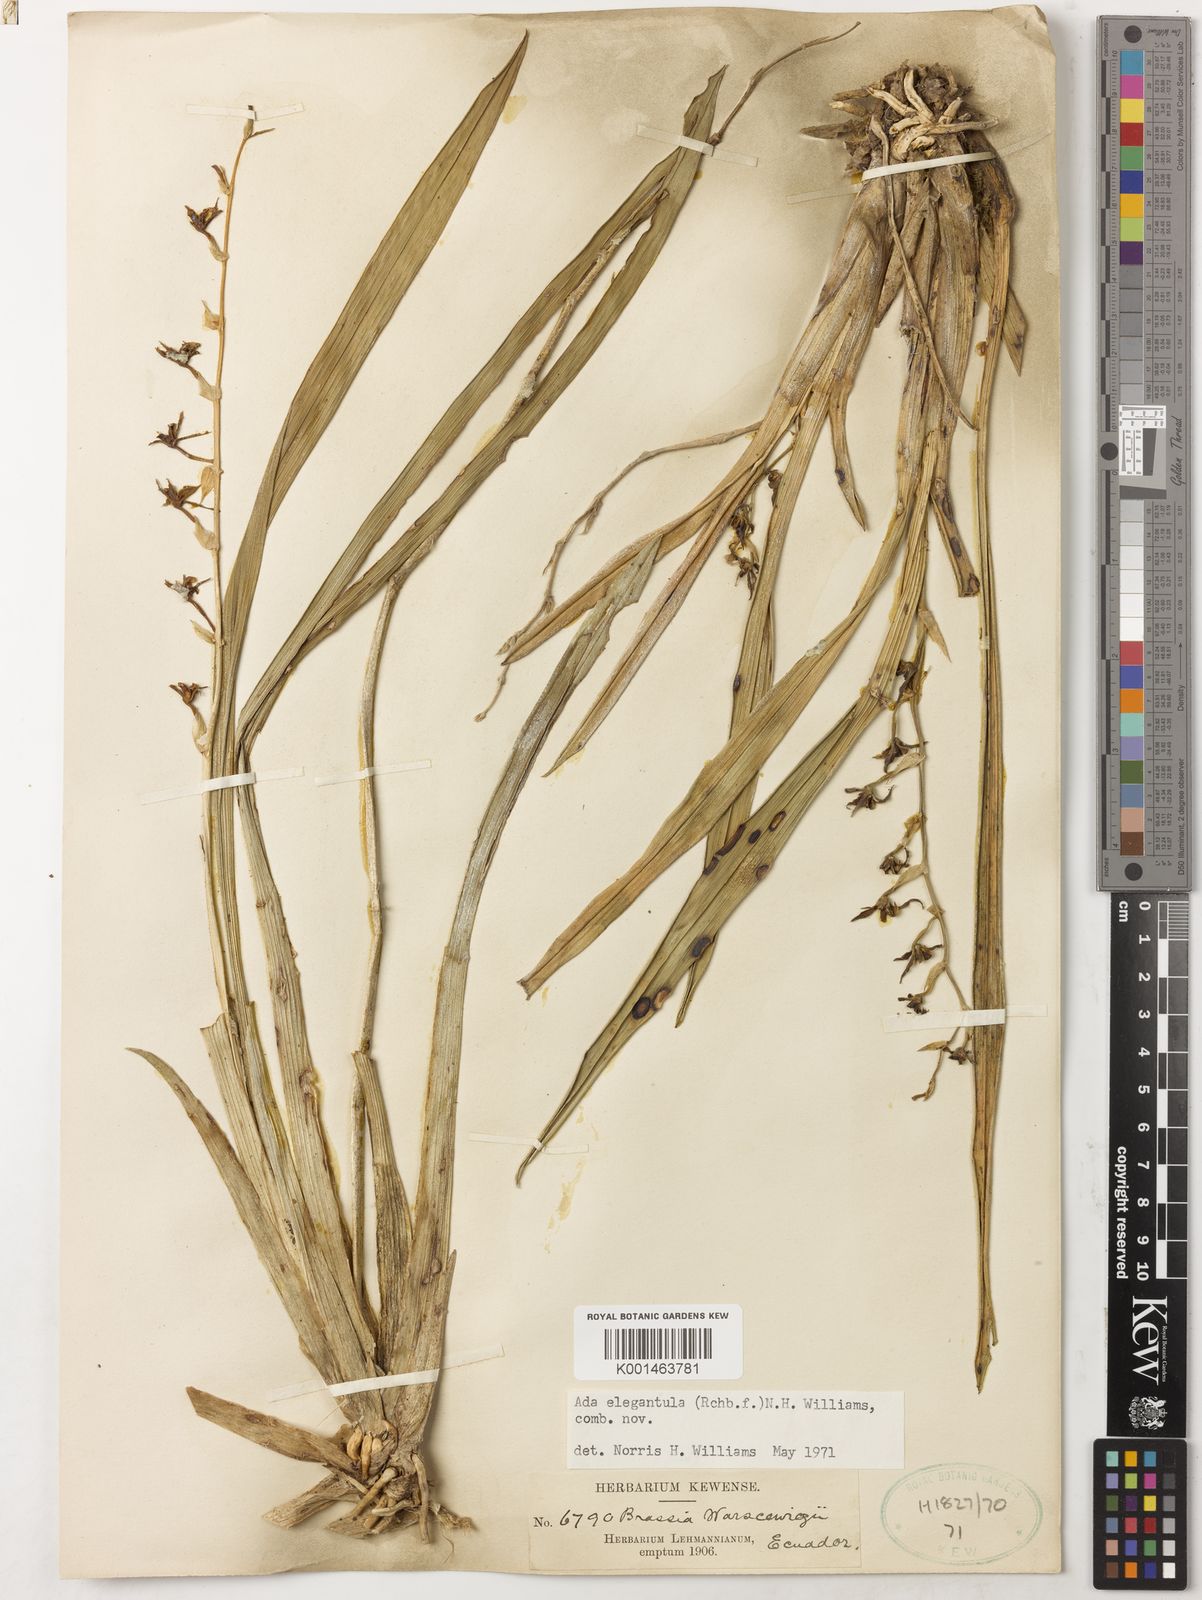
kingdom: Plantae
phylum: Tracheophyta
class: Liliopsida
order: Asparagales
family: Orchidaceae
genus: Brassia
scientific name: Brassia euodes
